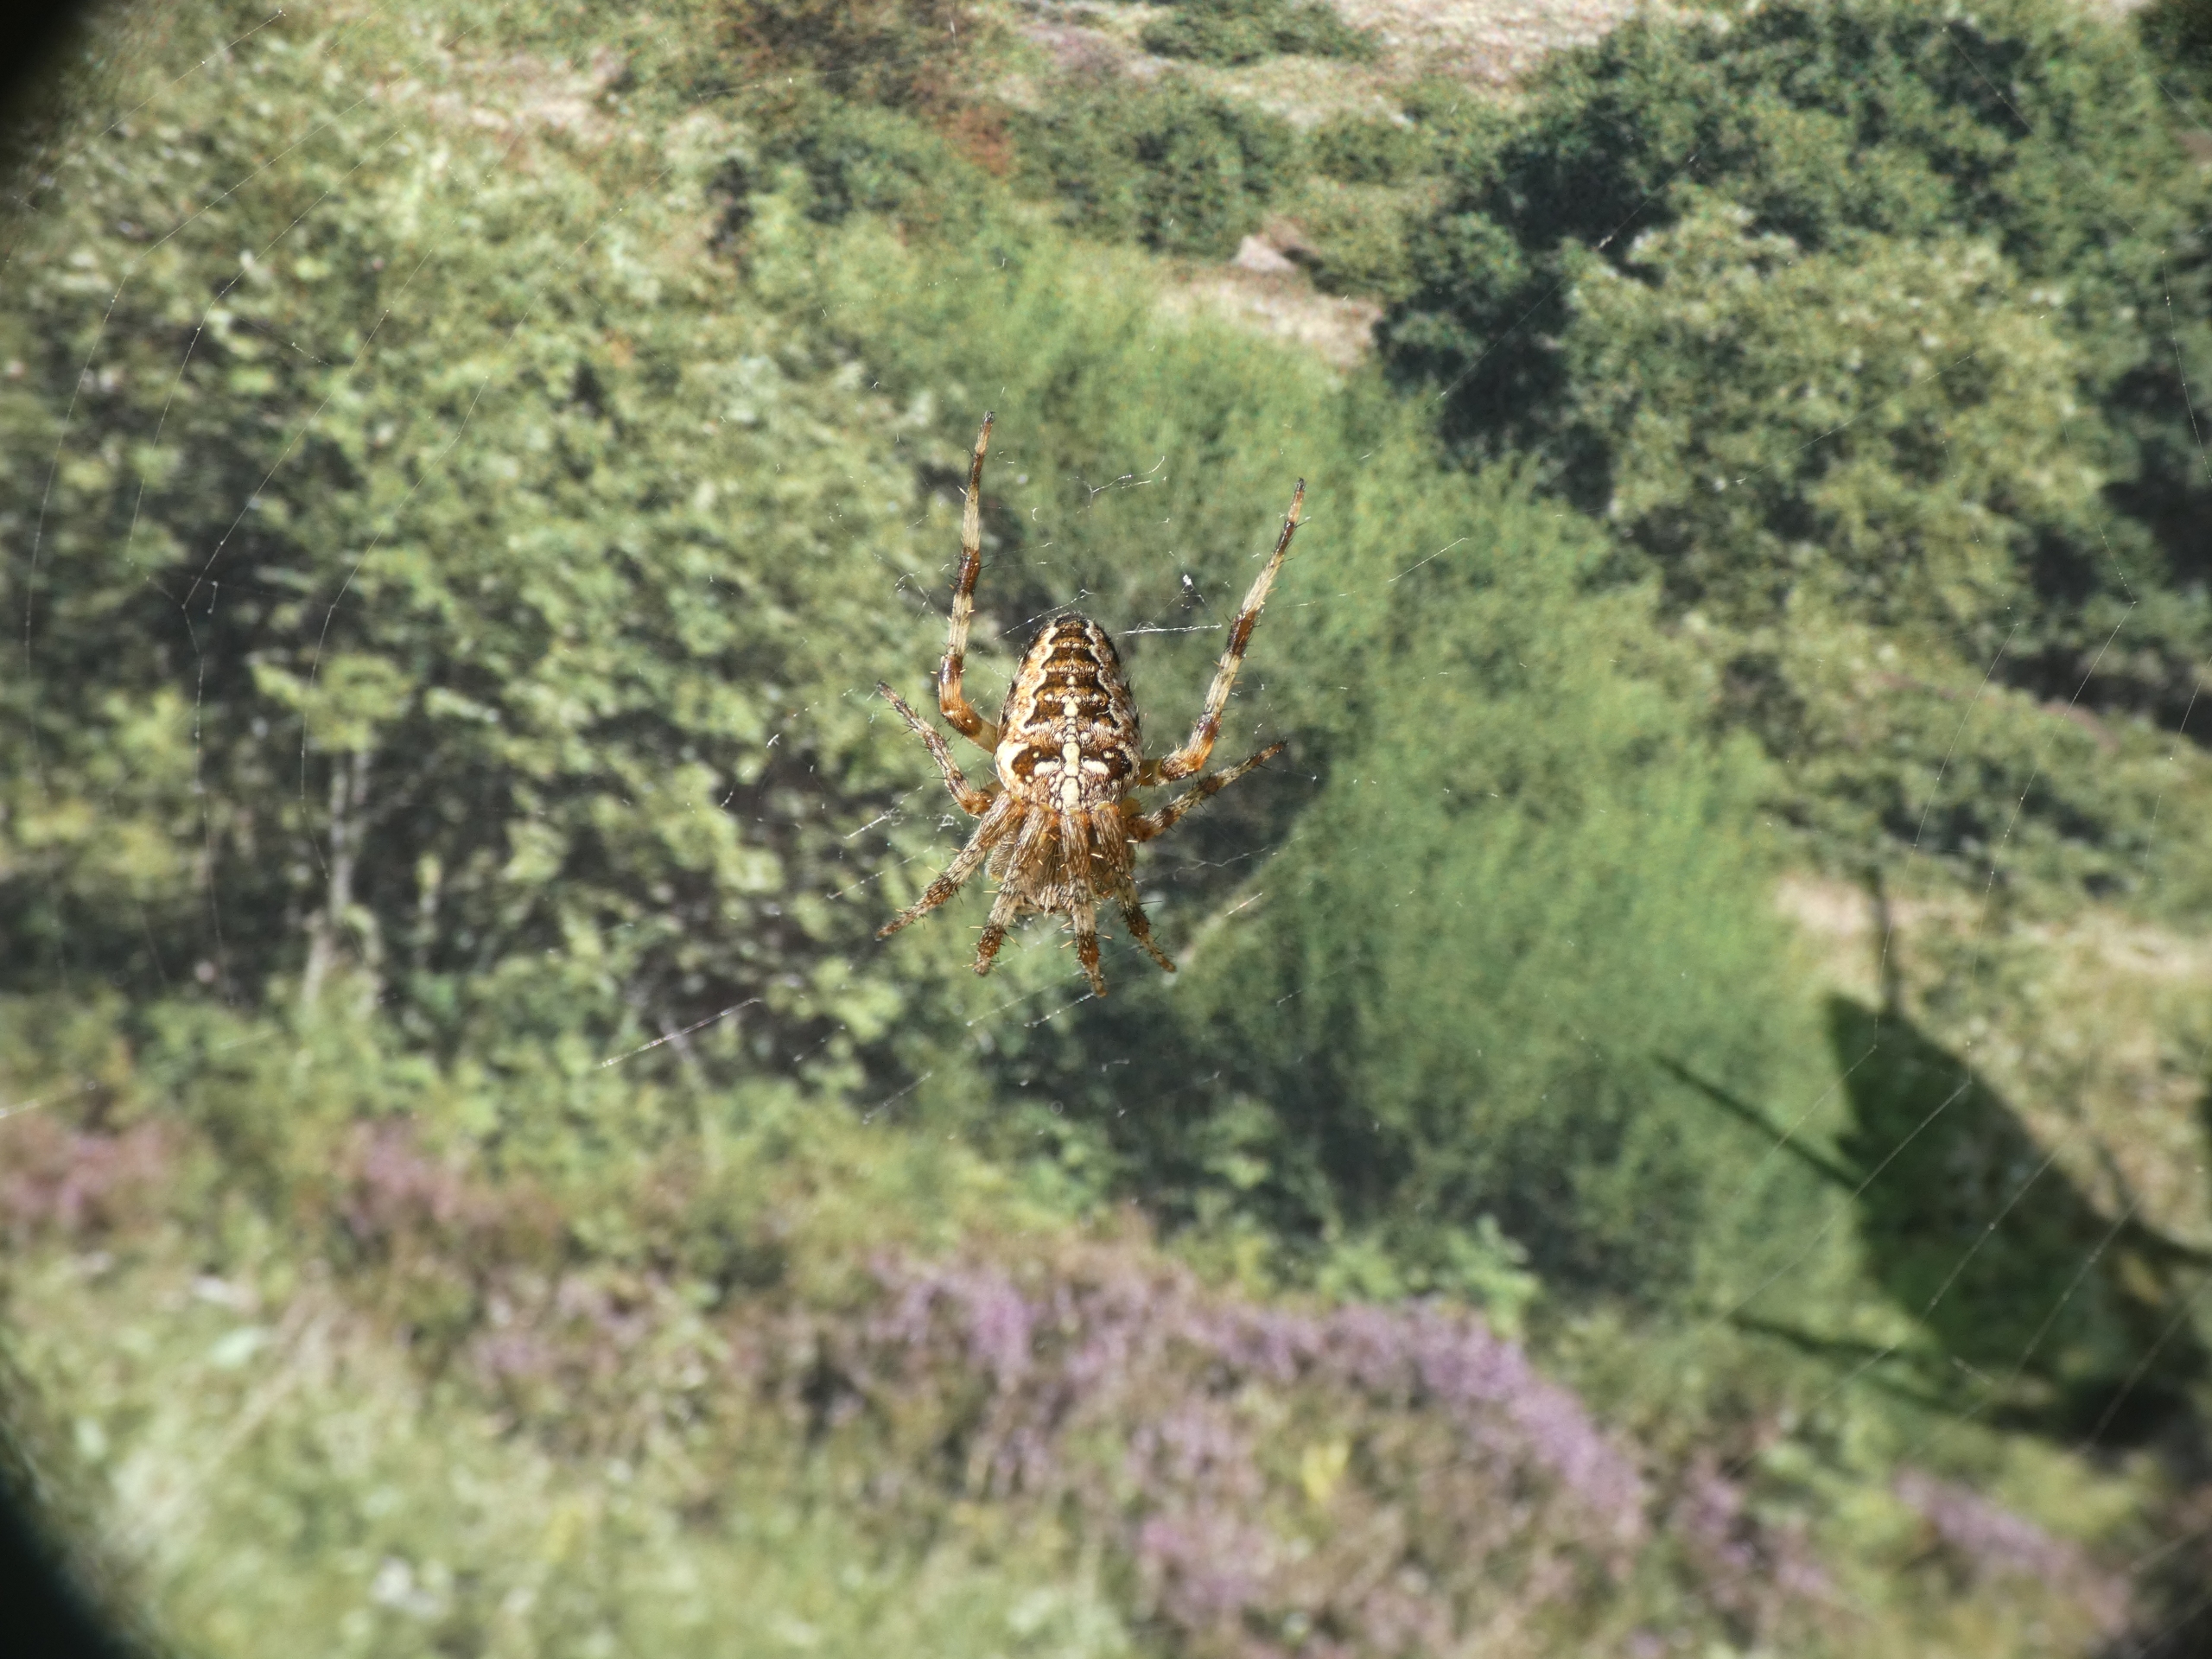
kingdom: Animalia
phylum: Arthropoda
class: Arachnida
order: Araneae
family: Araneidae
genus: Araneus
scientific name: Araneus diadematus
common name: Korsedderkop
